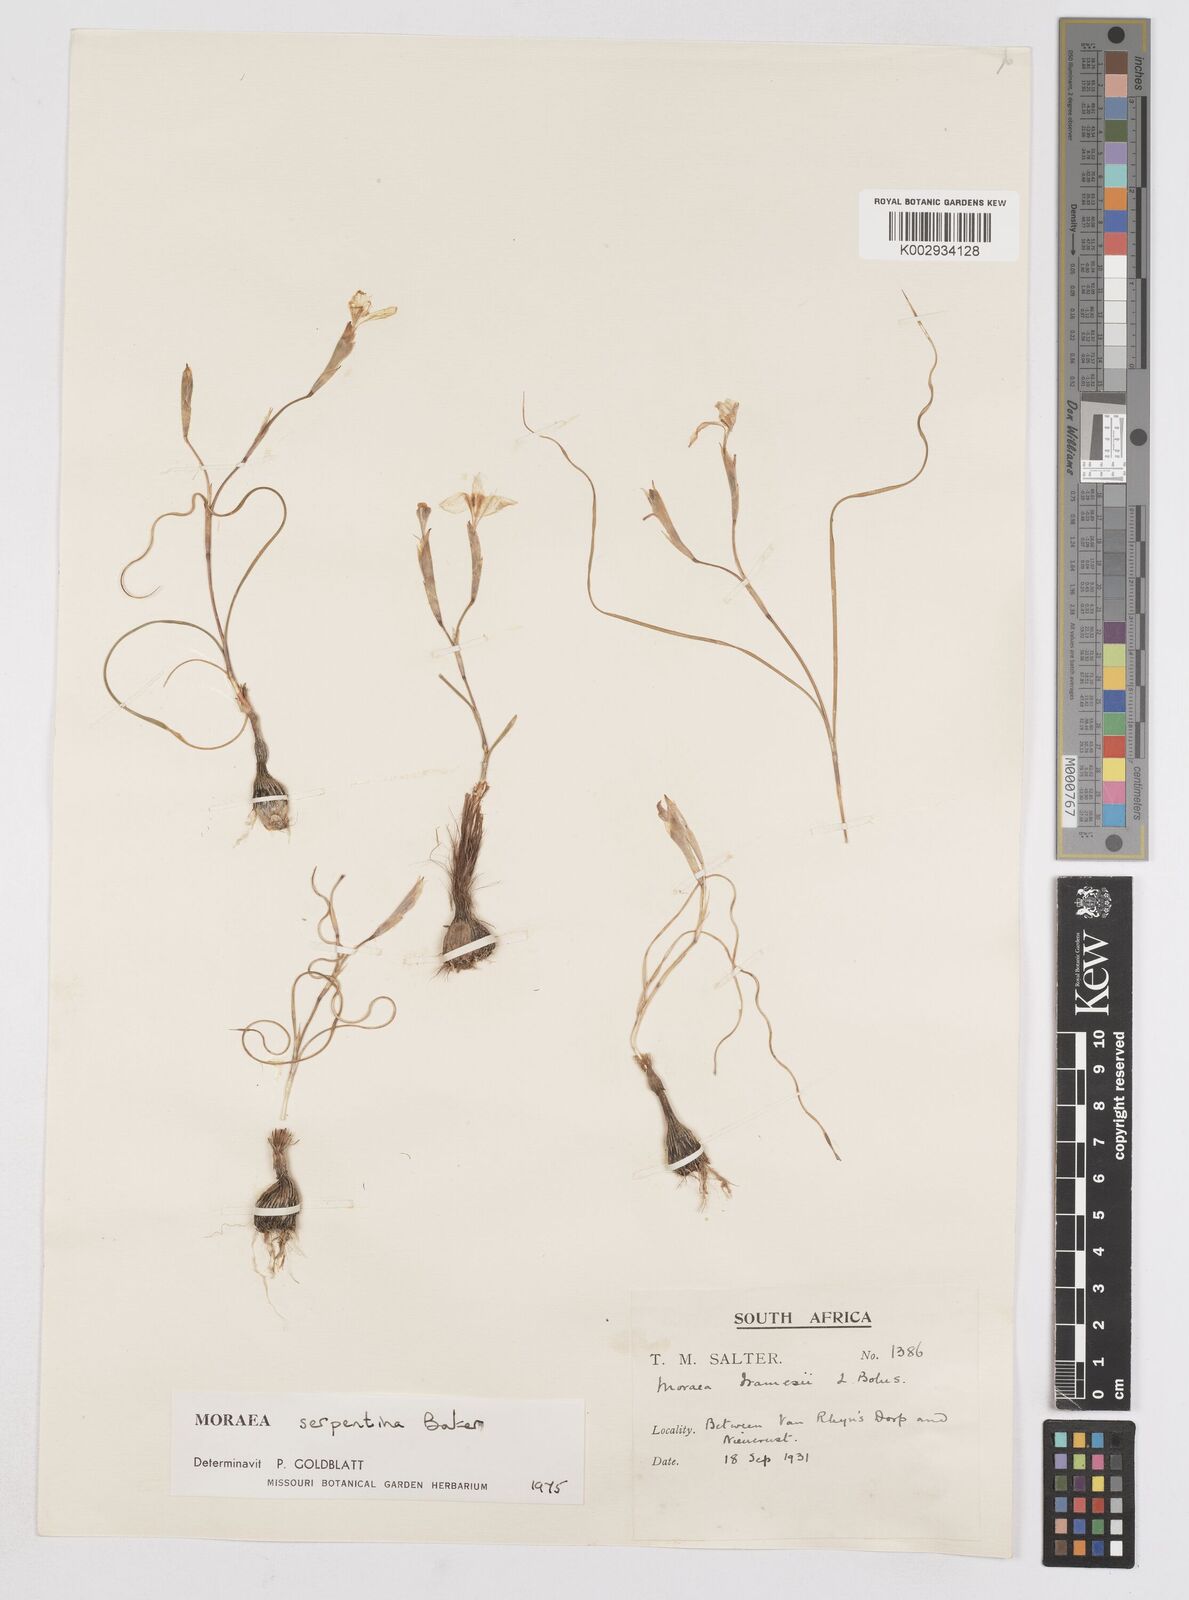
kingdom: Plantae
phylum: Tracheophyta
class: Liliopsida
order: Asparagales
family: Iridaceae
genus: Moraea
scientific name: Moraea serpentina
